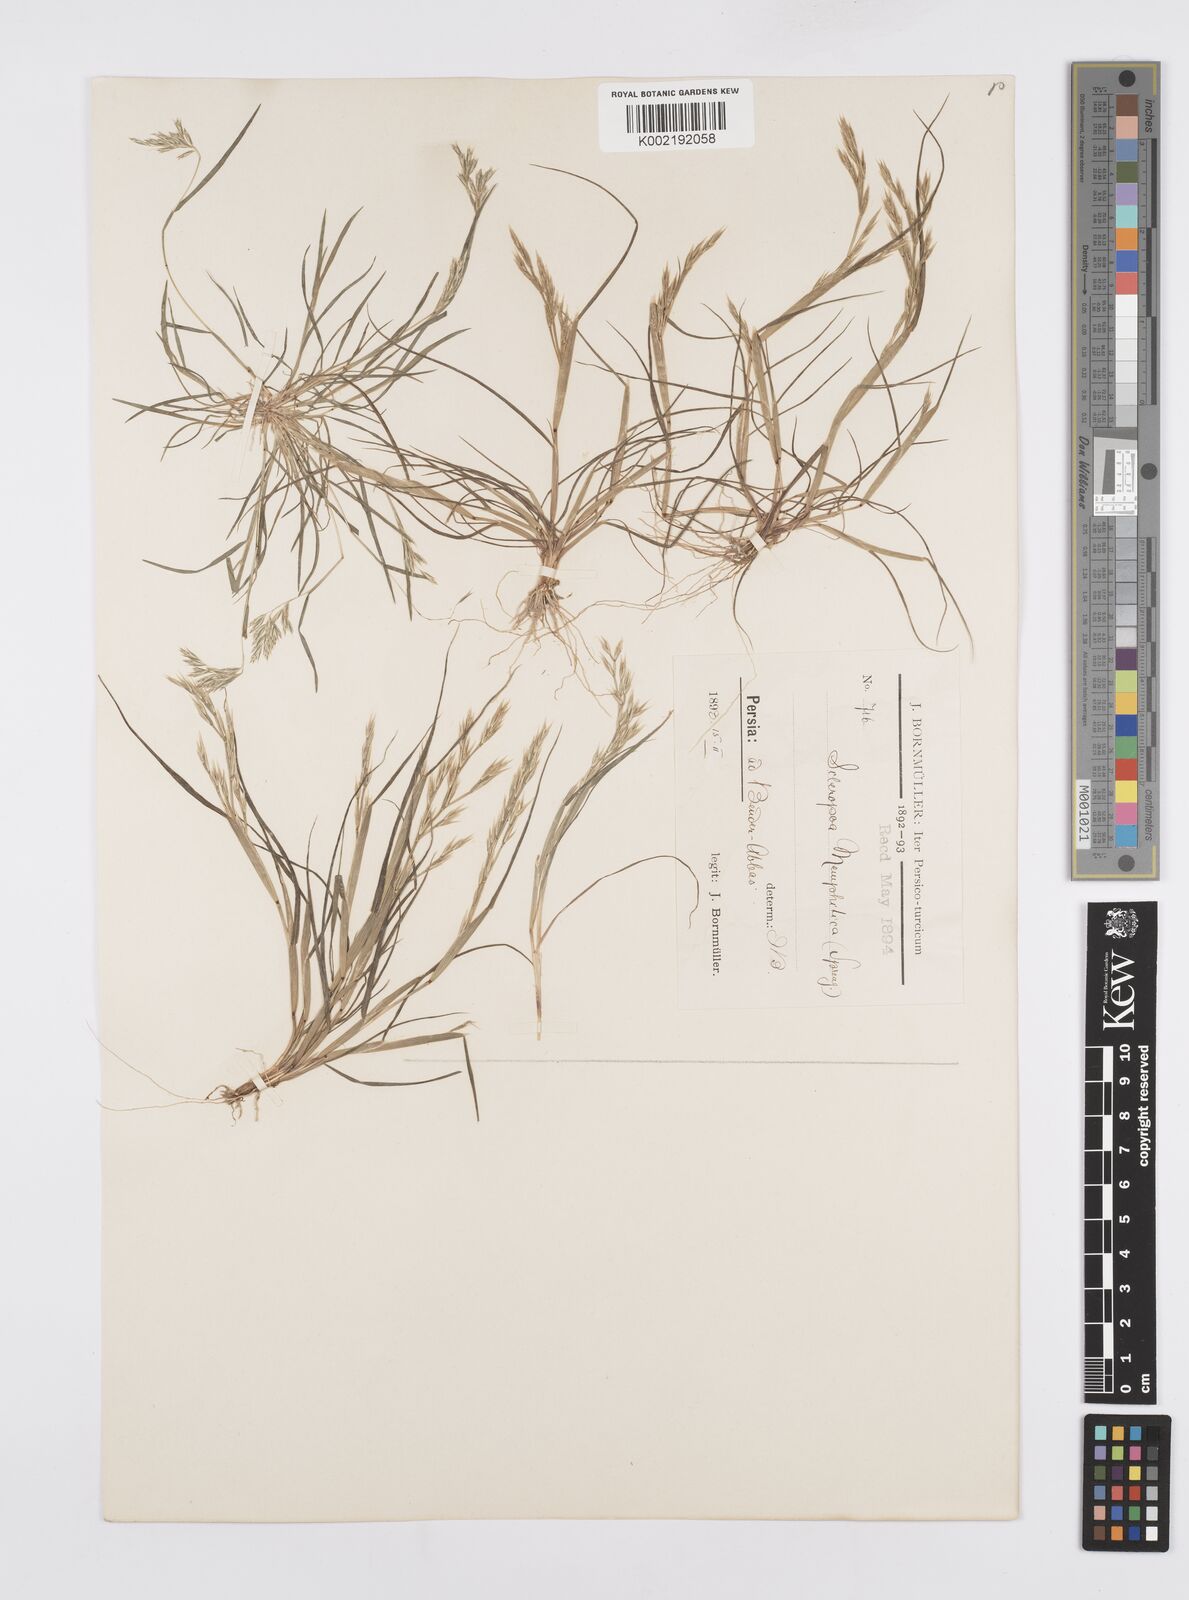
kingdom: Plantae
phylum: Tracheophyta
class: Liliopsida
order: Poales
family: Poaceae
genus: Cutandia
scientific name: Cutandia memphitica
